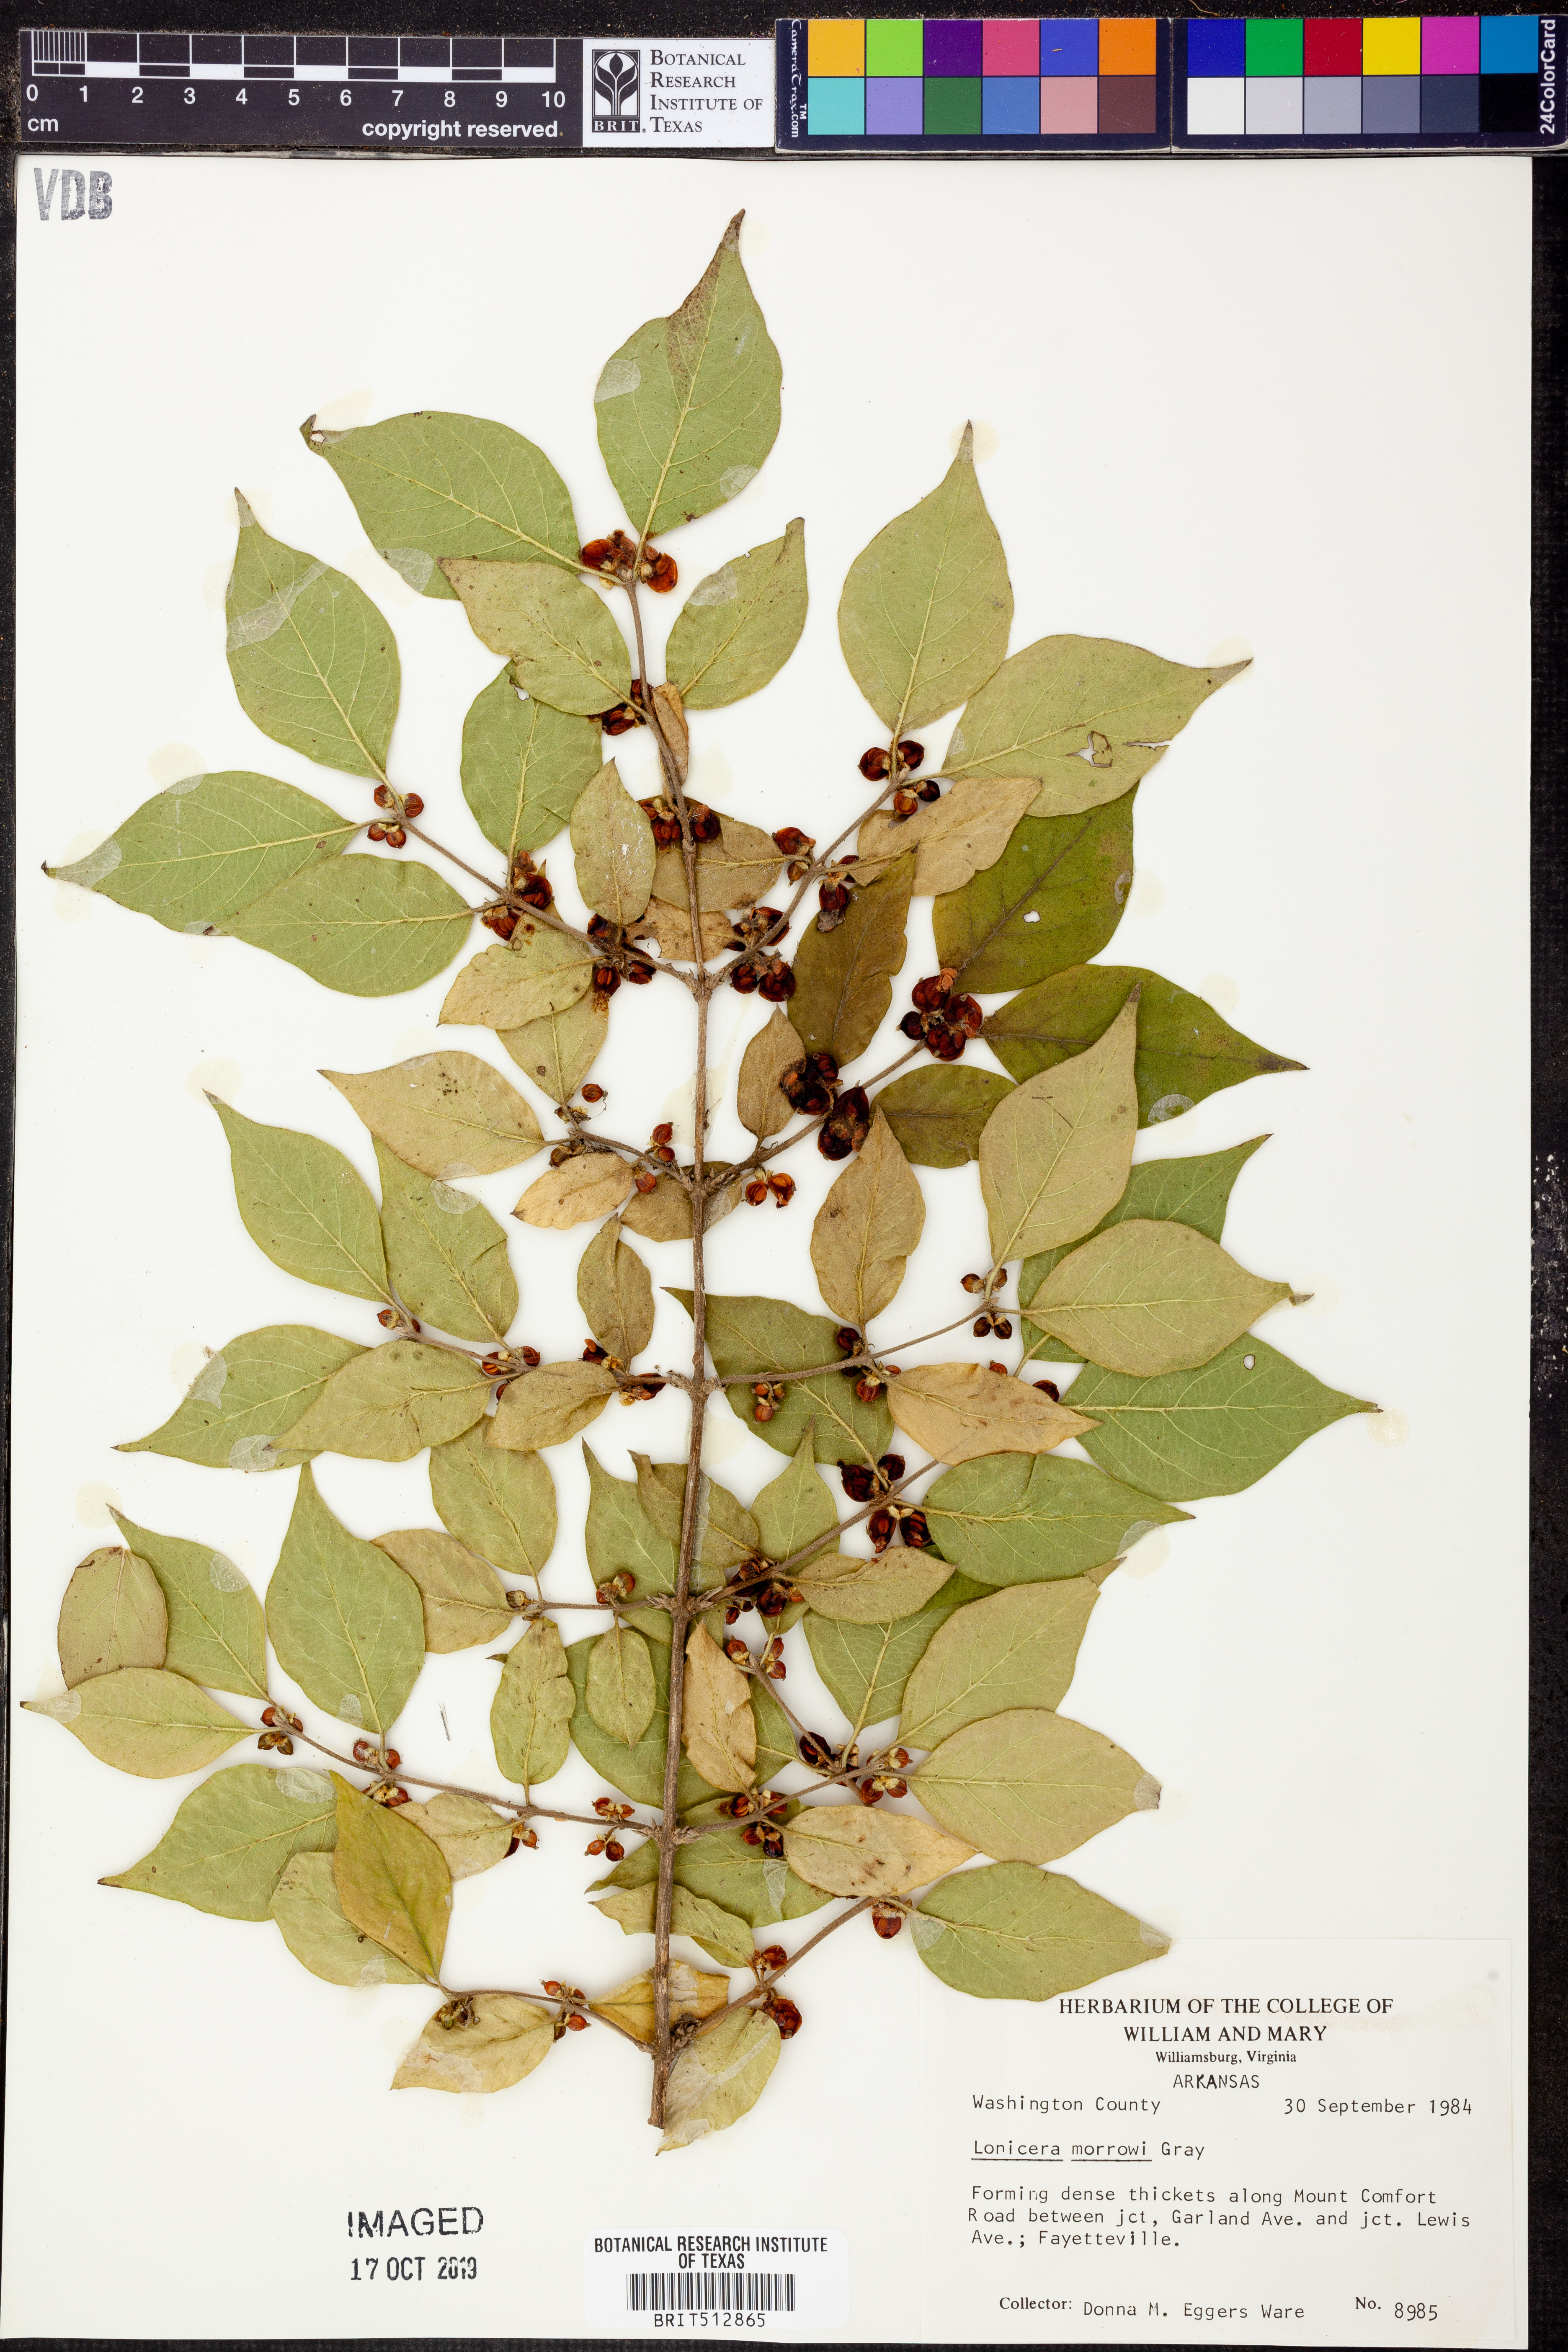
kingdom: Plantae
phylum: Tracheophyta
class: Magnoliopsida
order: Dipsacales
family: Caprifoliaceae
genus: Lonicera
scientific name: Lonicera morrowii
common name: Morrow's honeysuckle
